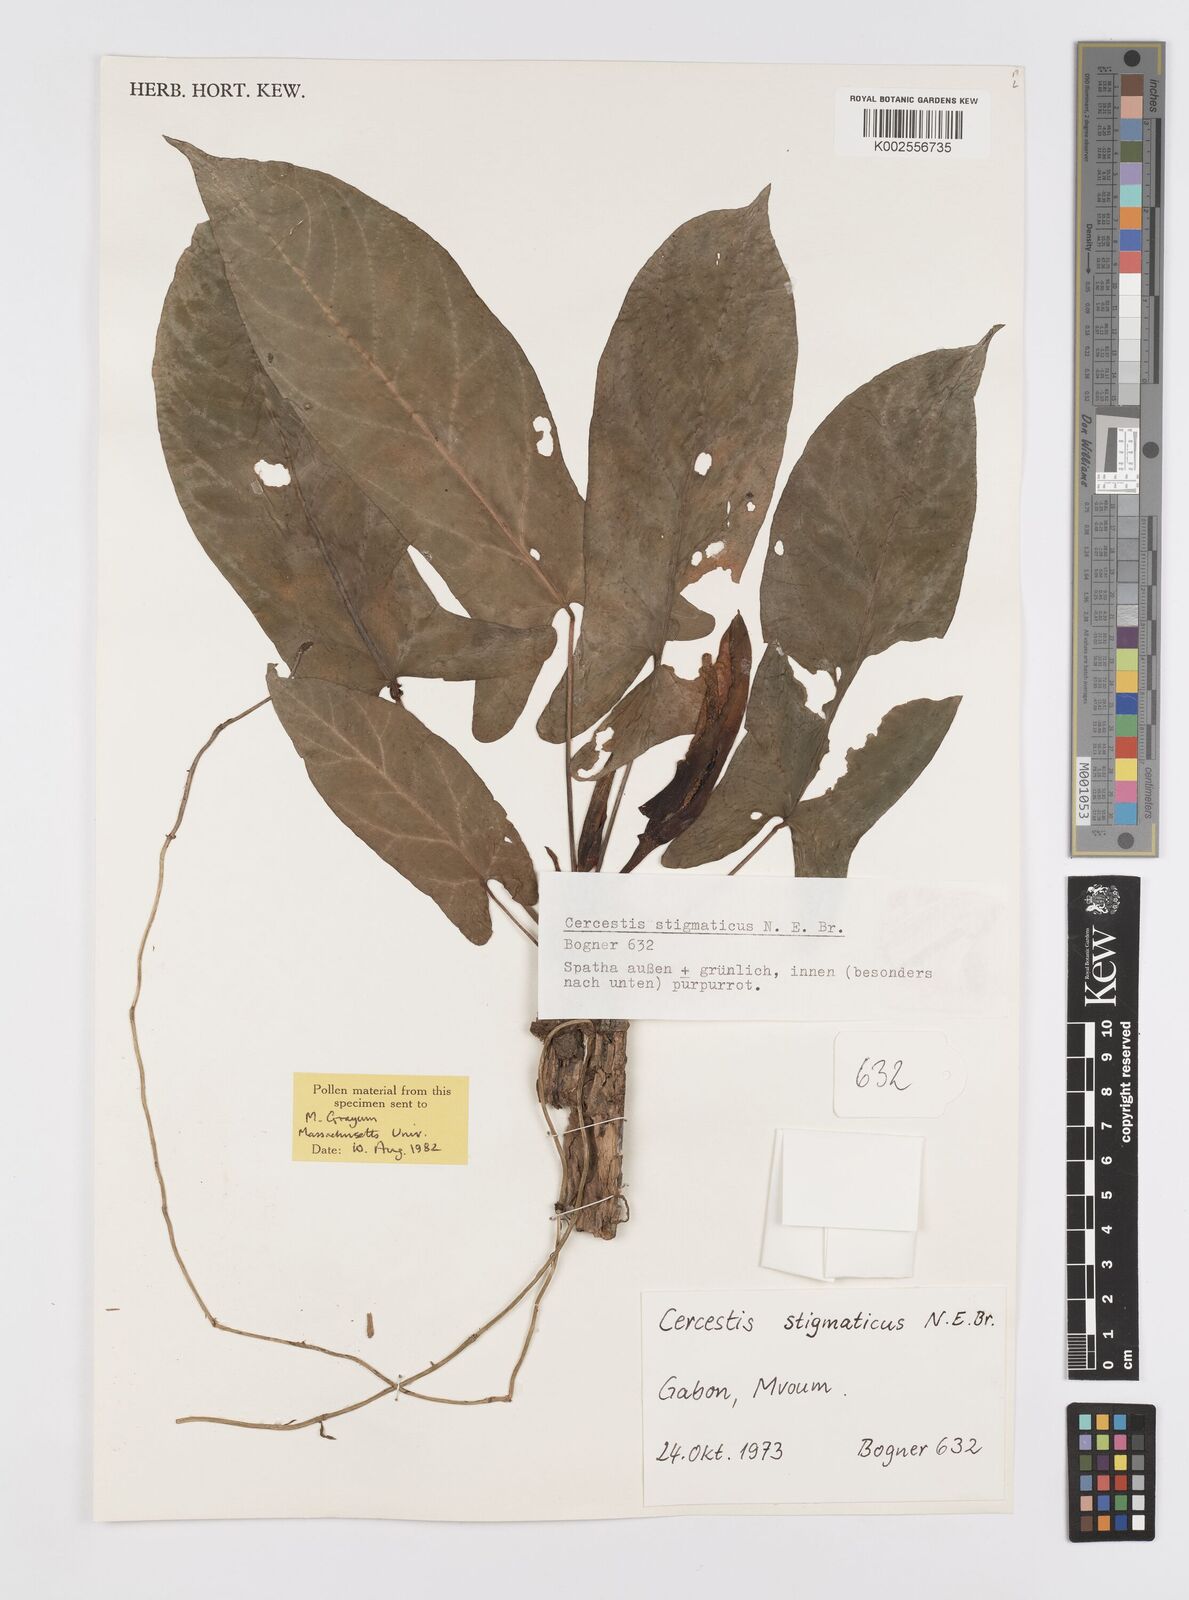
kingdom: Plantae
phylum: Tracheophyta
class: Liliopsida
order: Alismatales
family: Araceae
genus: Cercestis
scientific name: Cercestis dinklagei
